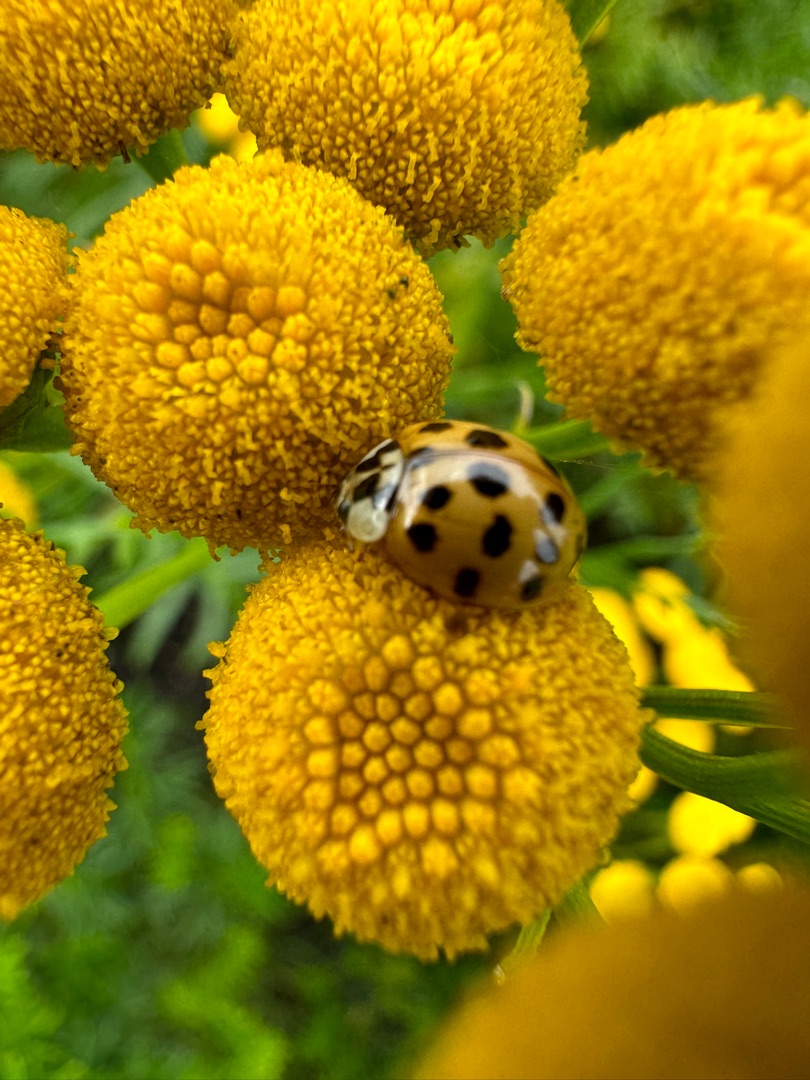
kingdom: Animalia
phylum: Arthropoda
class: Insecta
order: Coleoptera
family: Coccinellidae
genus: Harmonia
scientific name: Harmonia axyridis
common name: Harlekinmariehøne
